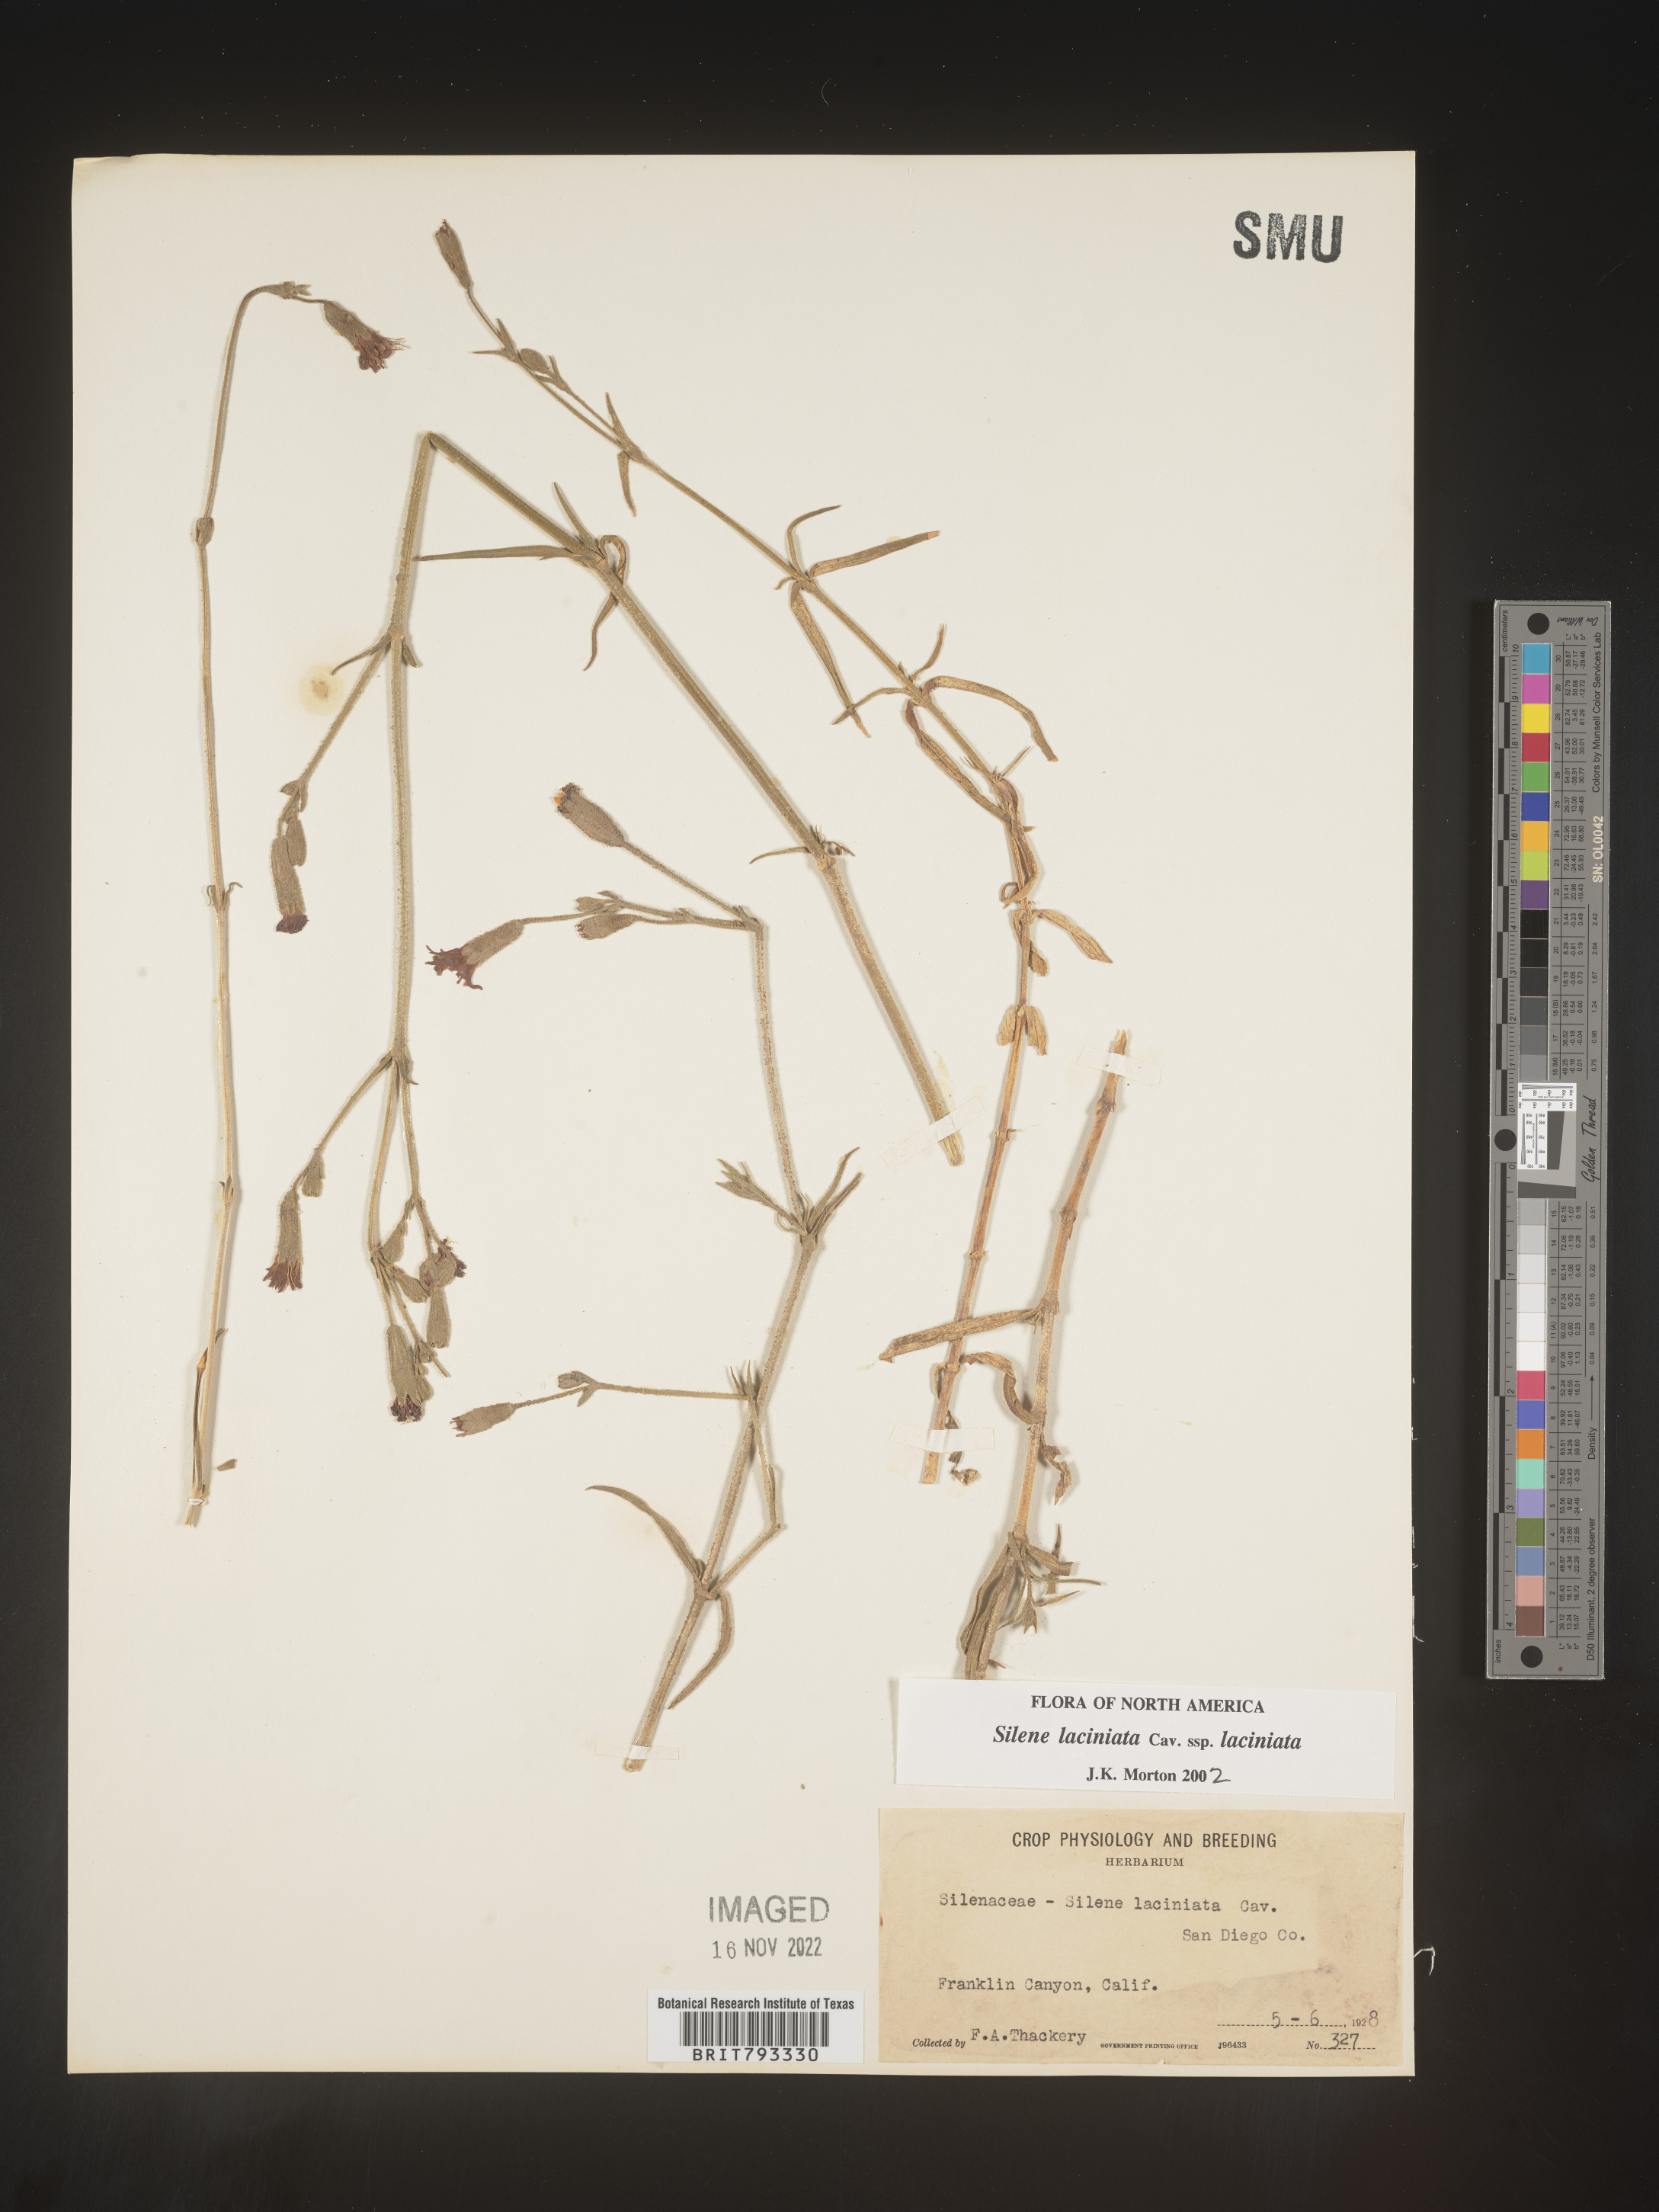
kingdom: Plantae
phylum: Tracheophyta
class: Magnoliopsida
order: Caryophyllales
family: Caryophyllaceae
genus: Silene
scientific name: Silene laciniata
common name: Indian-pink
